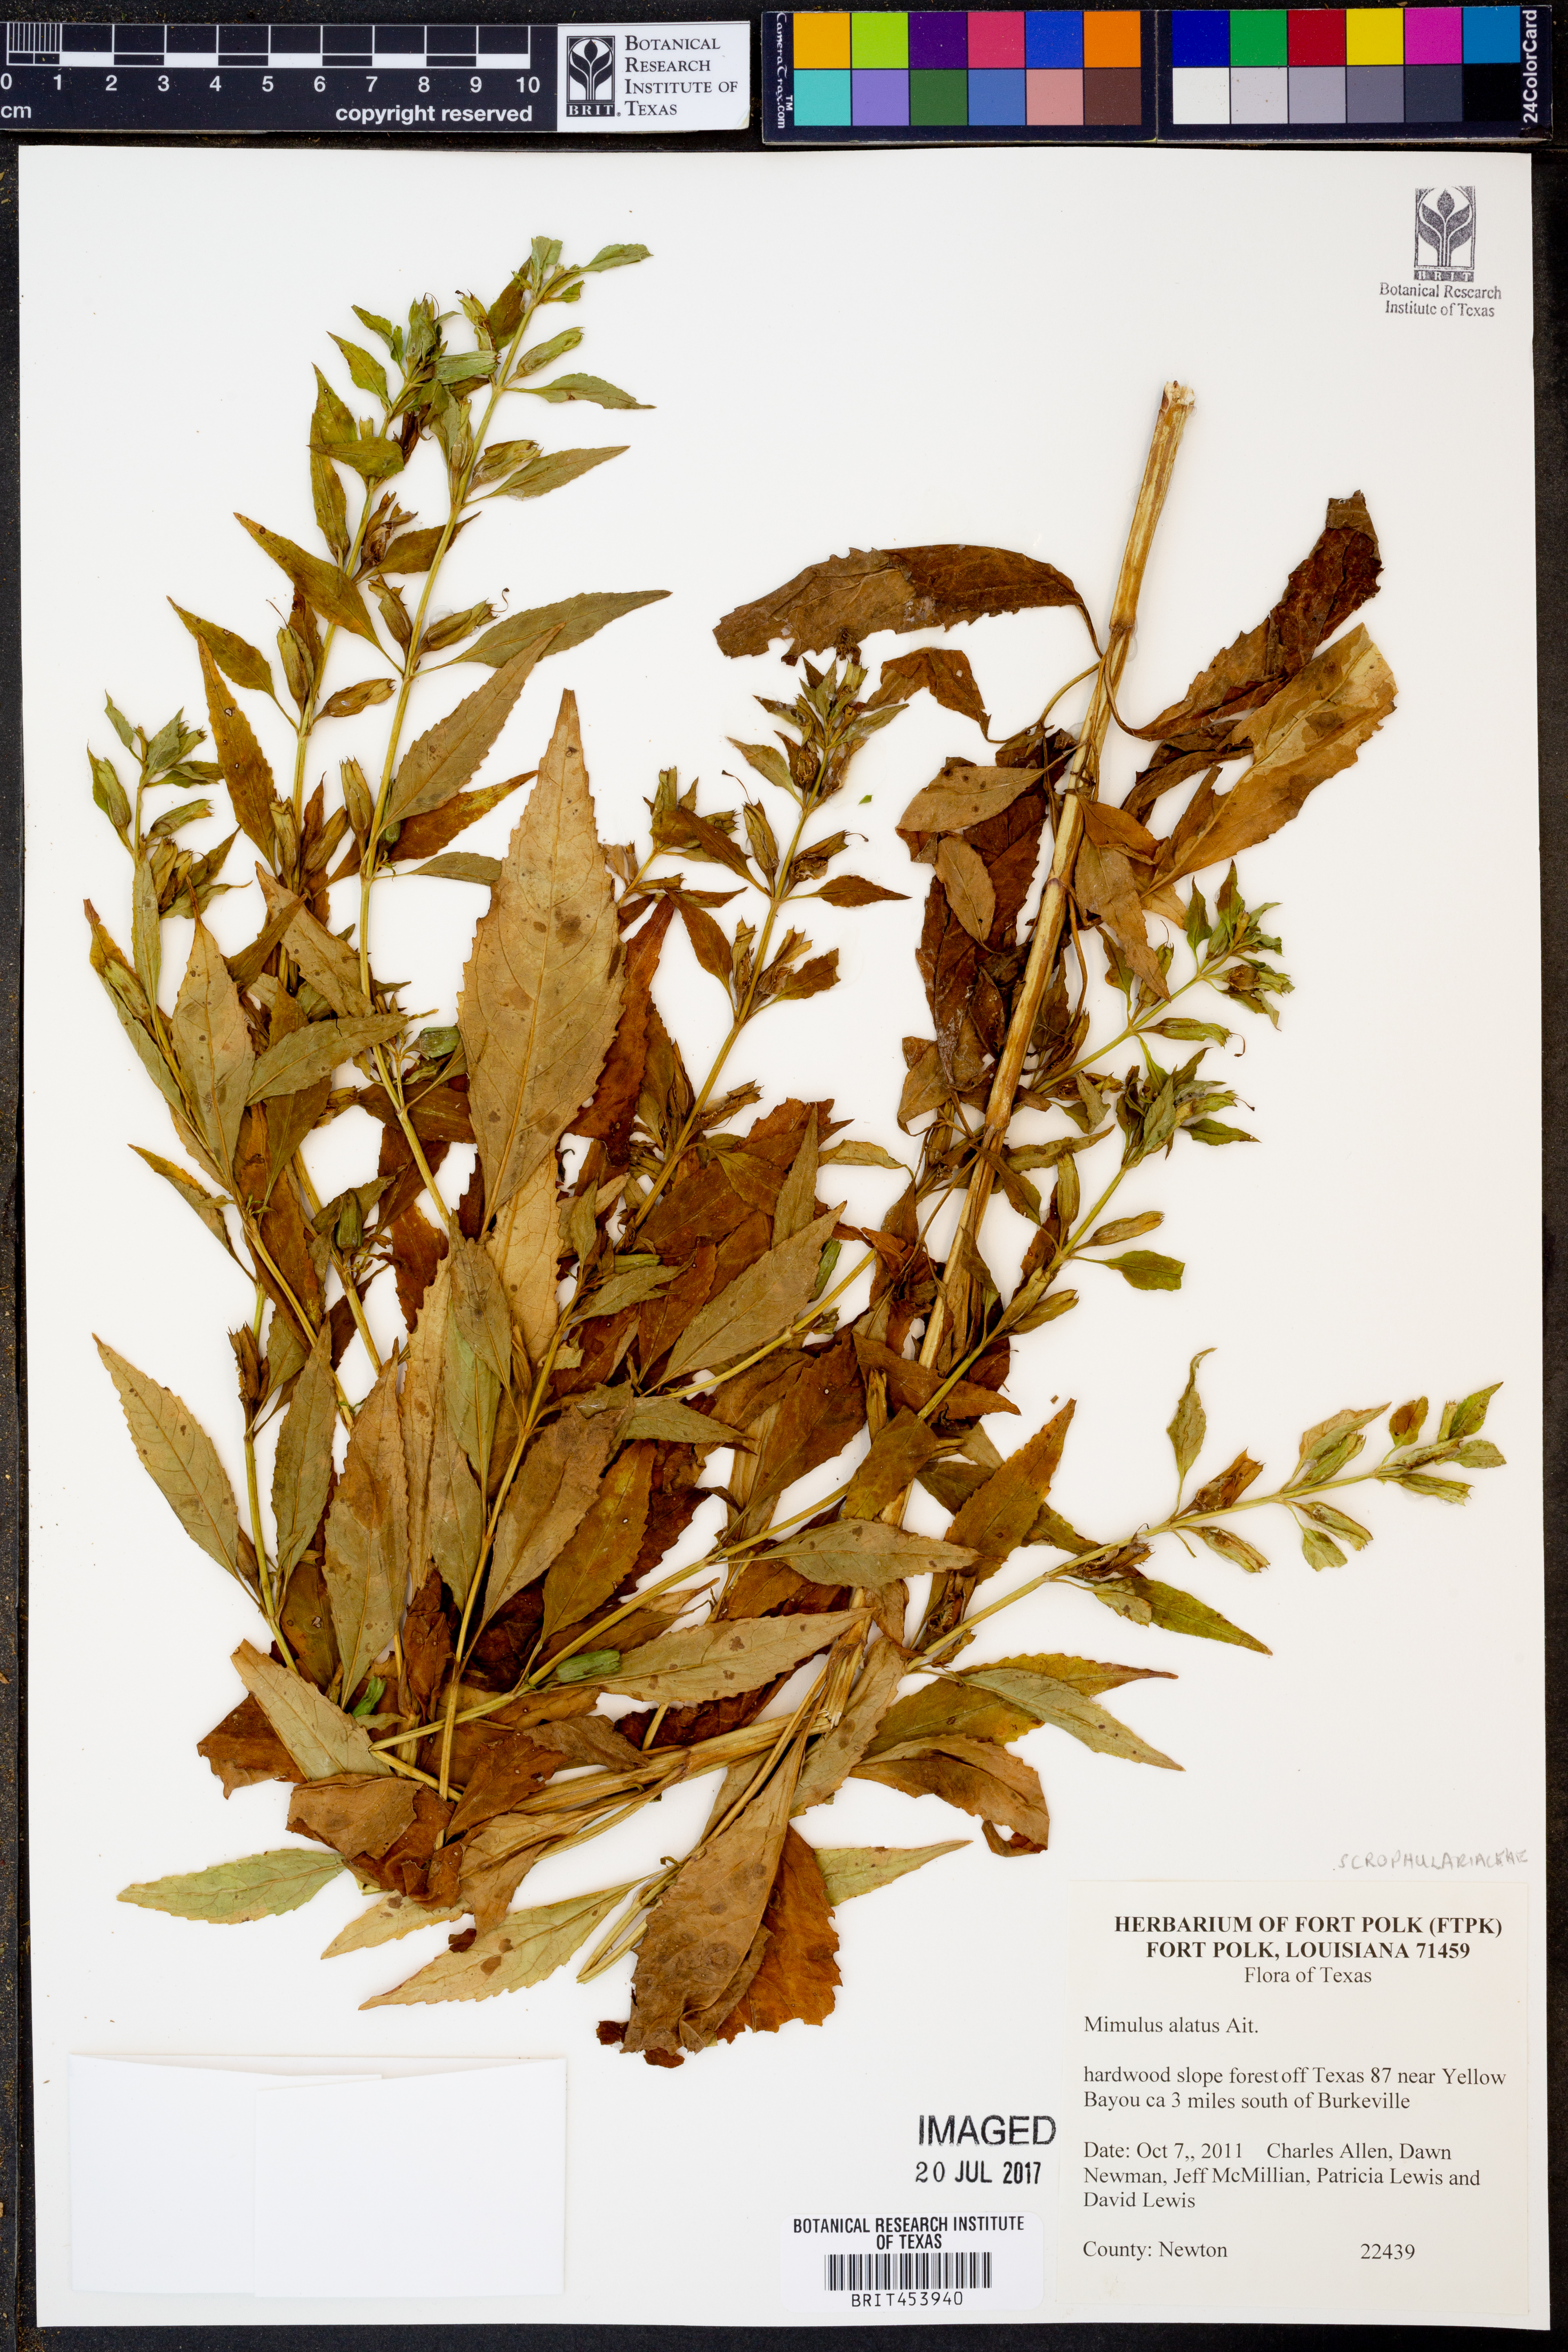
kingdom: Plantae
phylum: Tracheophyta
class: Magnoliopsida
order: Lamiales
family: Phrymaceae
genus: Mimulus
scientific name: Mimulus alatus
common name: Sharp-wing monkey-flower
